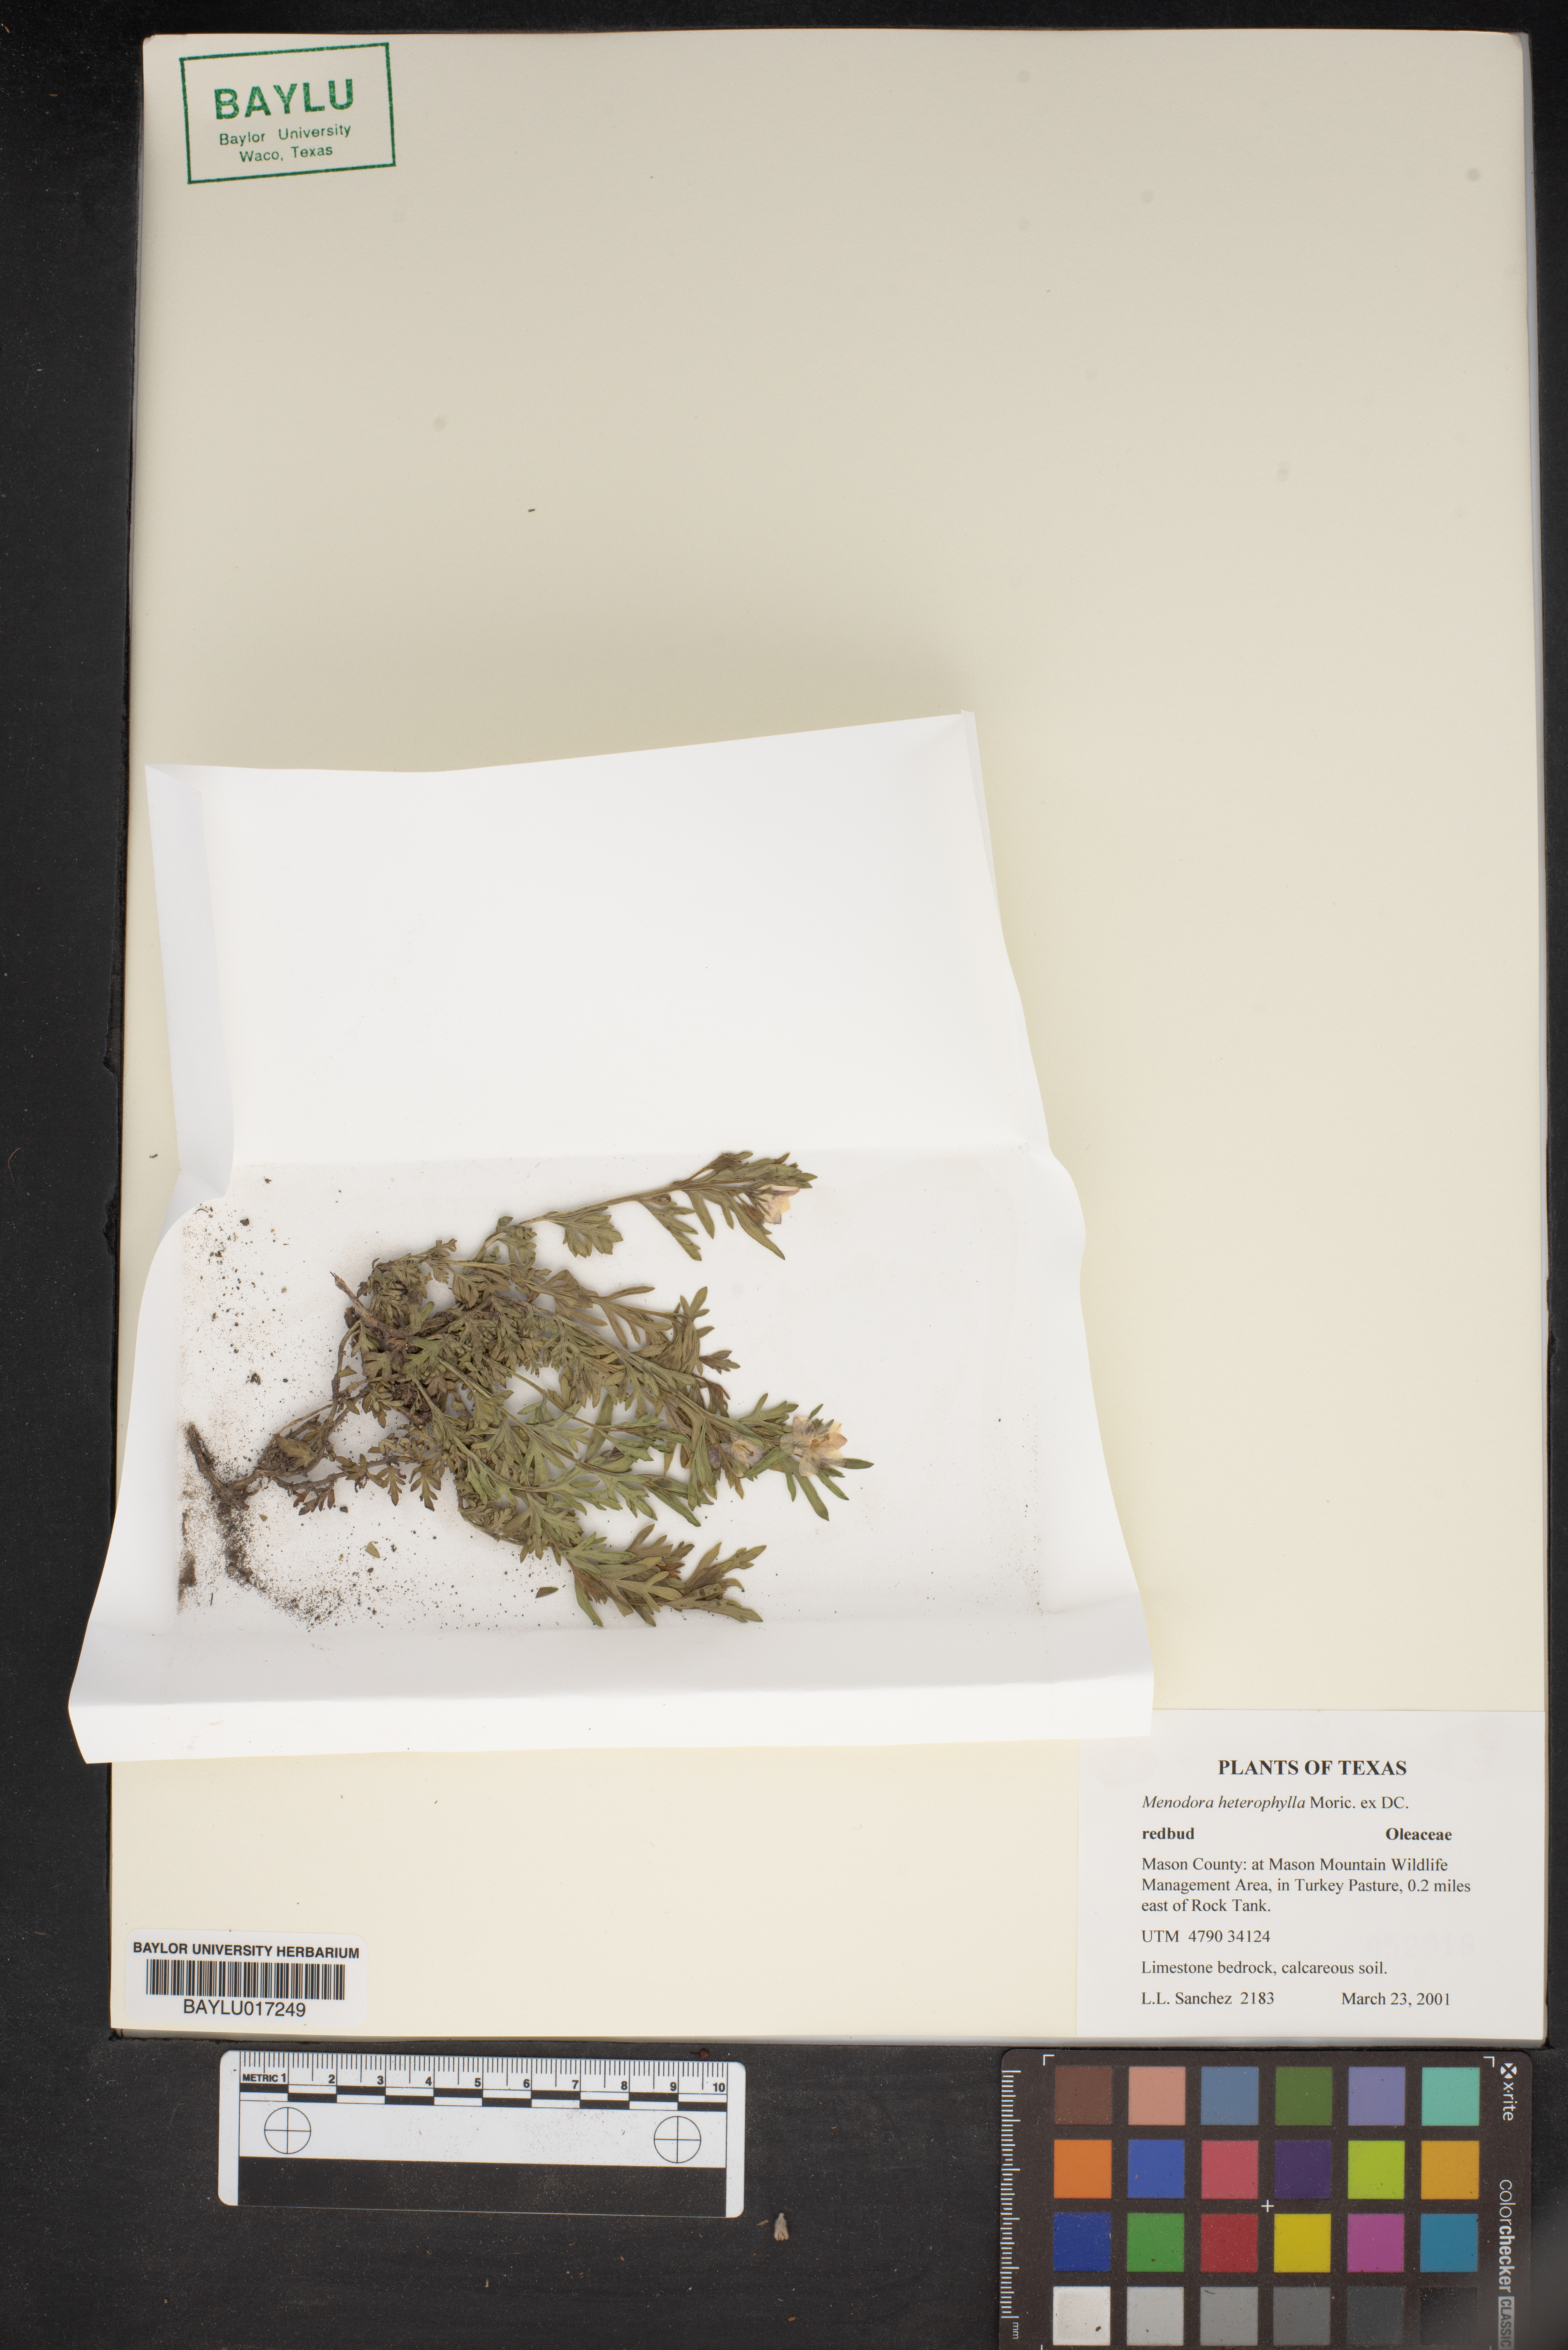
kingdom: Plantae
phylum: Tracheophyta
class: Magnoliopsida
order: Lamiales
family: Oleaceae
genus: Menodora
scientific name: Menodora heterophylla
